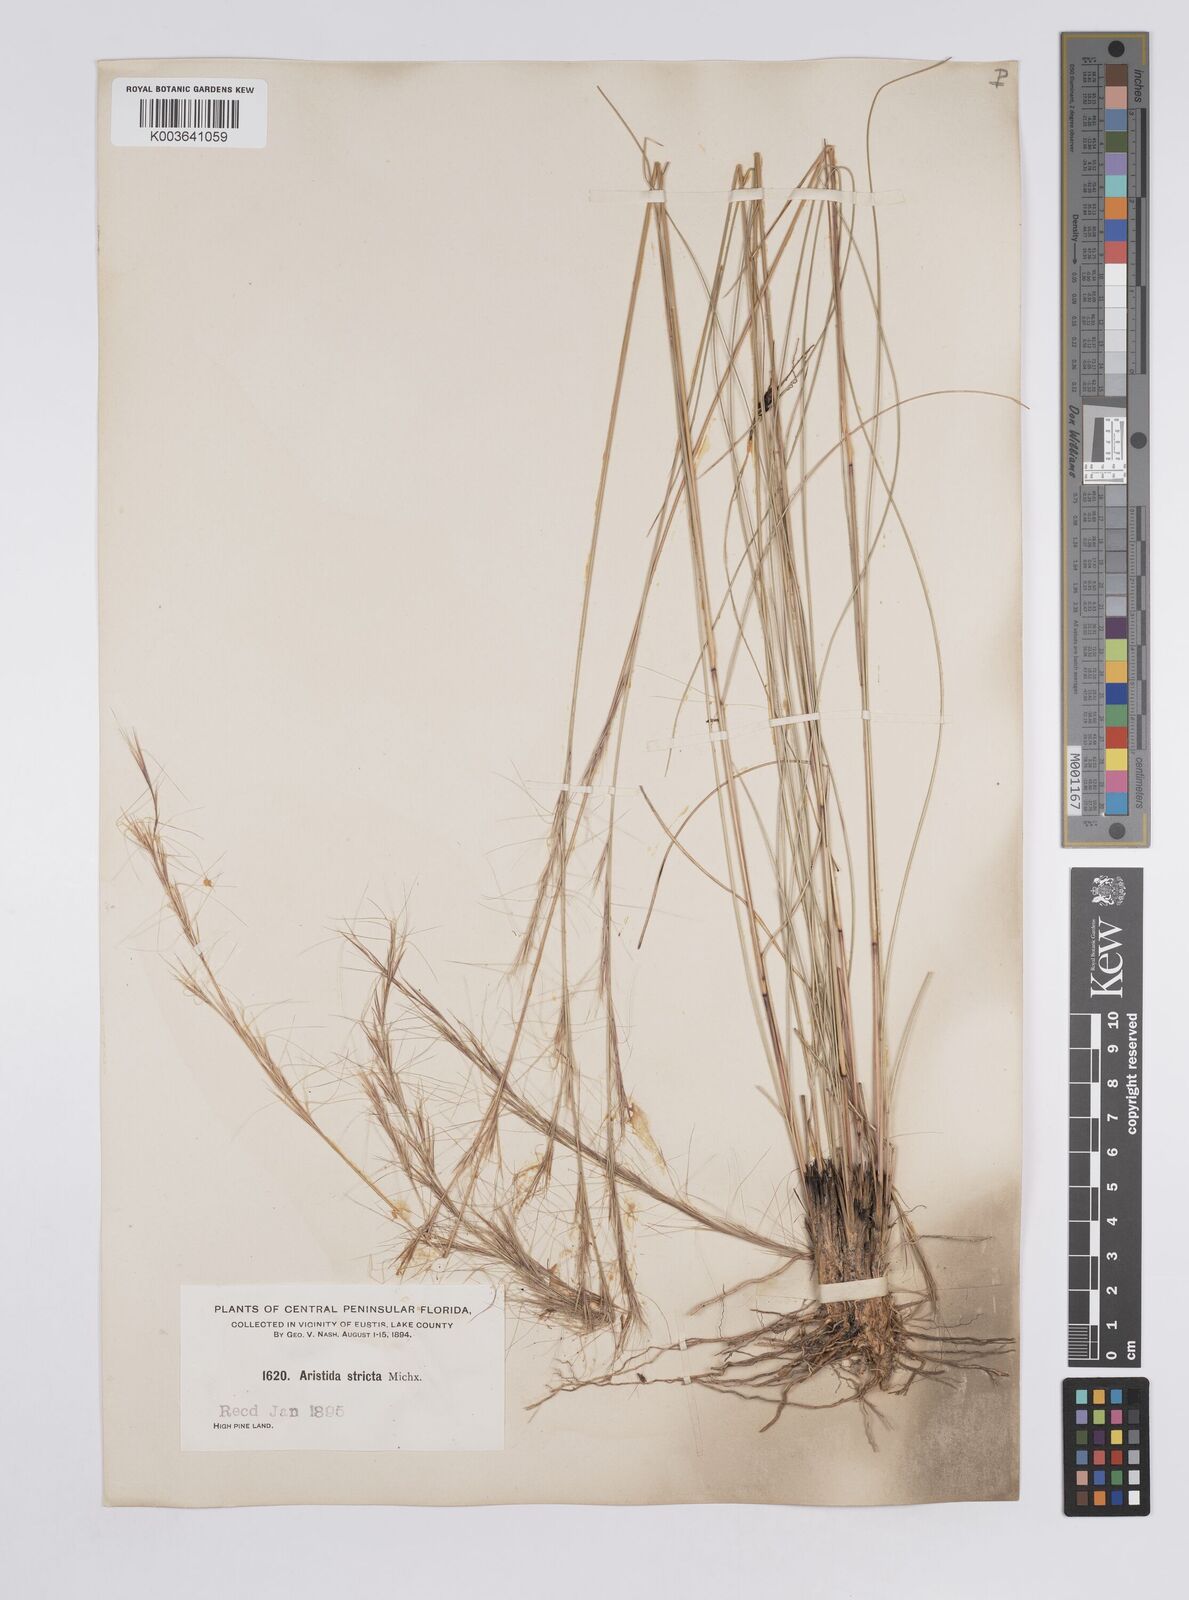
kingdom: Plantae
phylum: Tracheophyta
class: Liliopsida
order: Poales
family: Poaceae
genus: Aristida
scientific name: Aristida stricta
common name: Pineland three-awn
